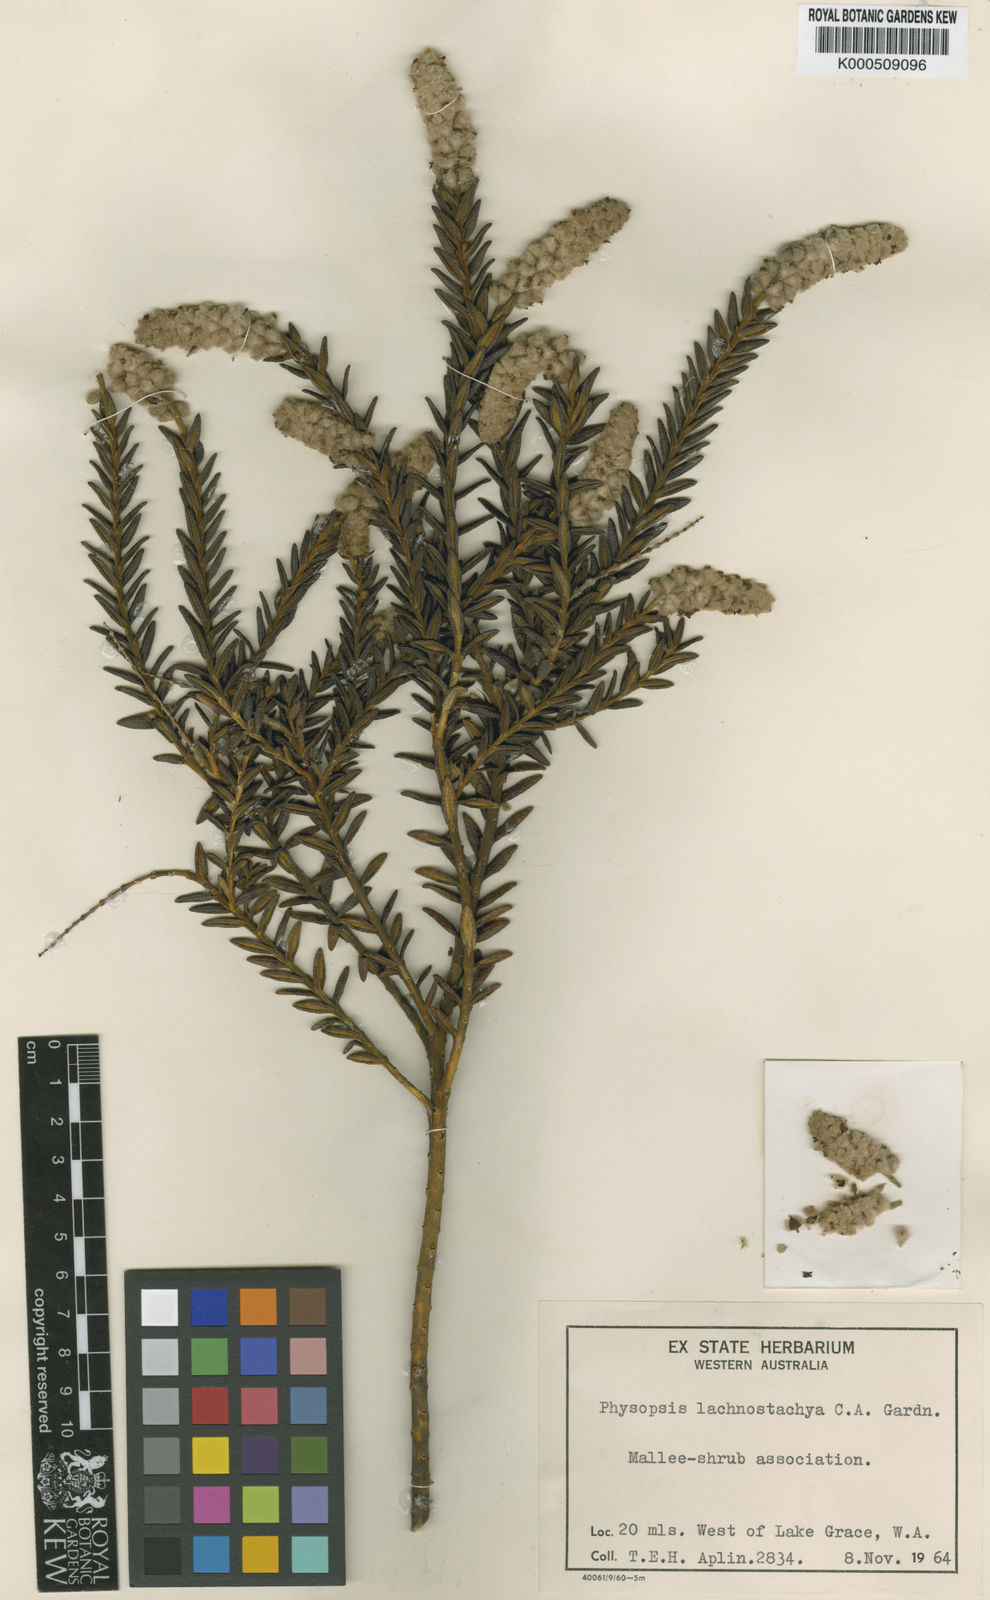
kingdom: Plantae
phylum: Tracheophyta
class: Magnoliopsida
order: Lamiales
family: Lamiaceae
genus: Apatelantha
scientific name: Apatelantha lachnostachya
